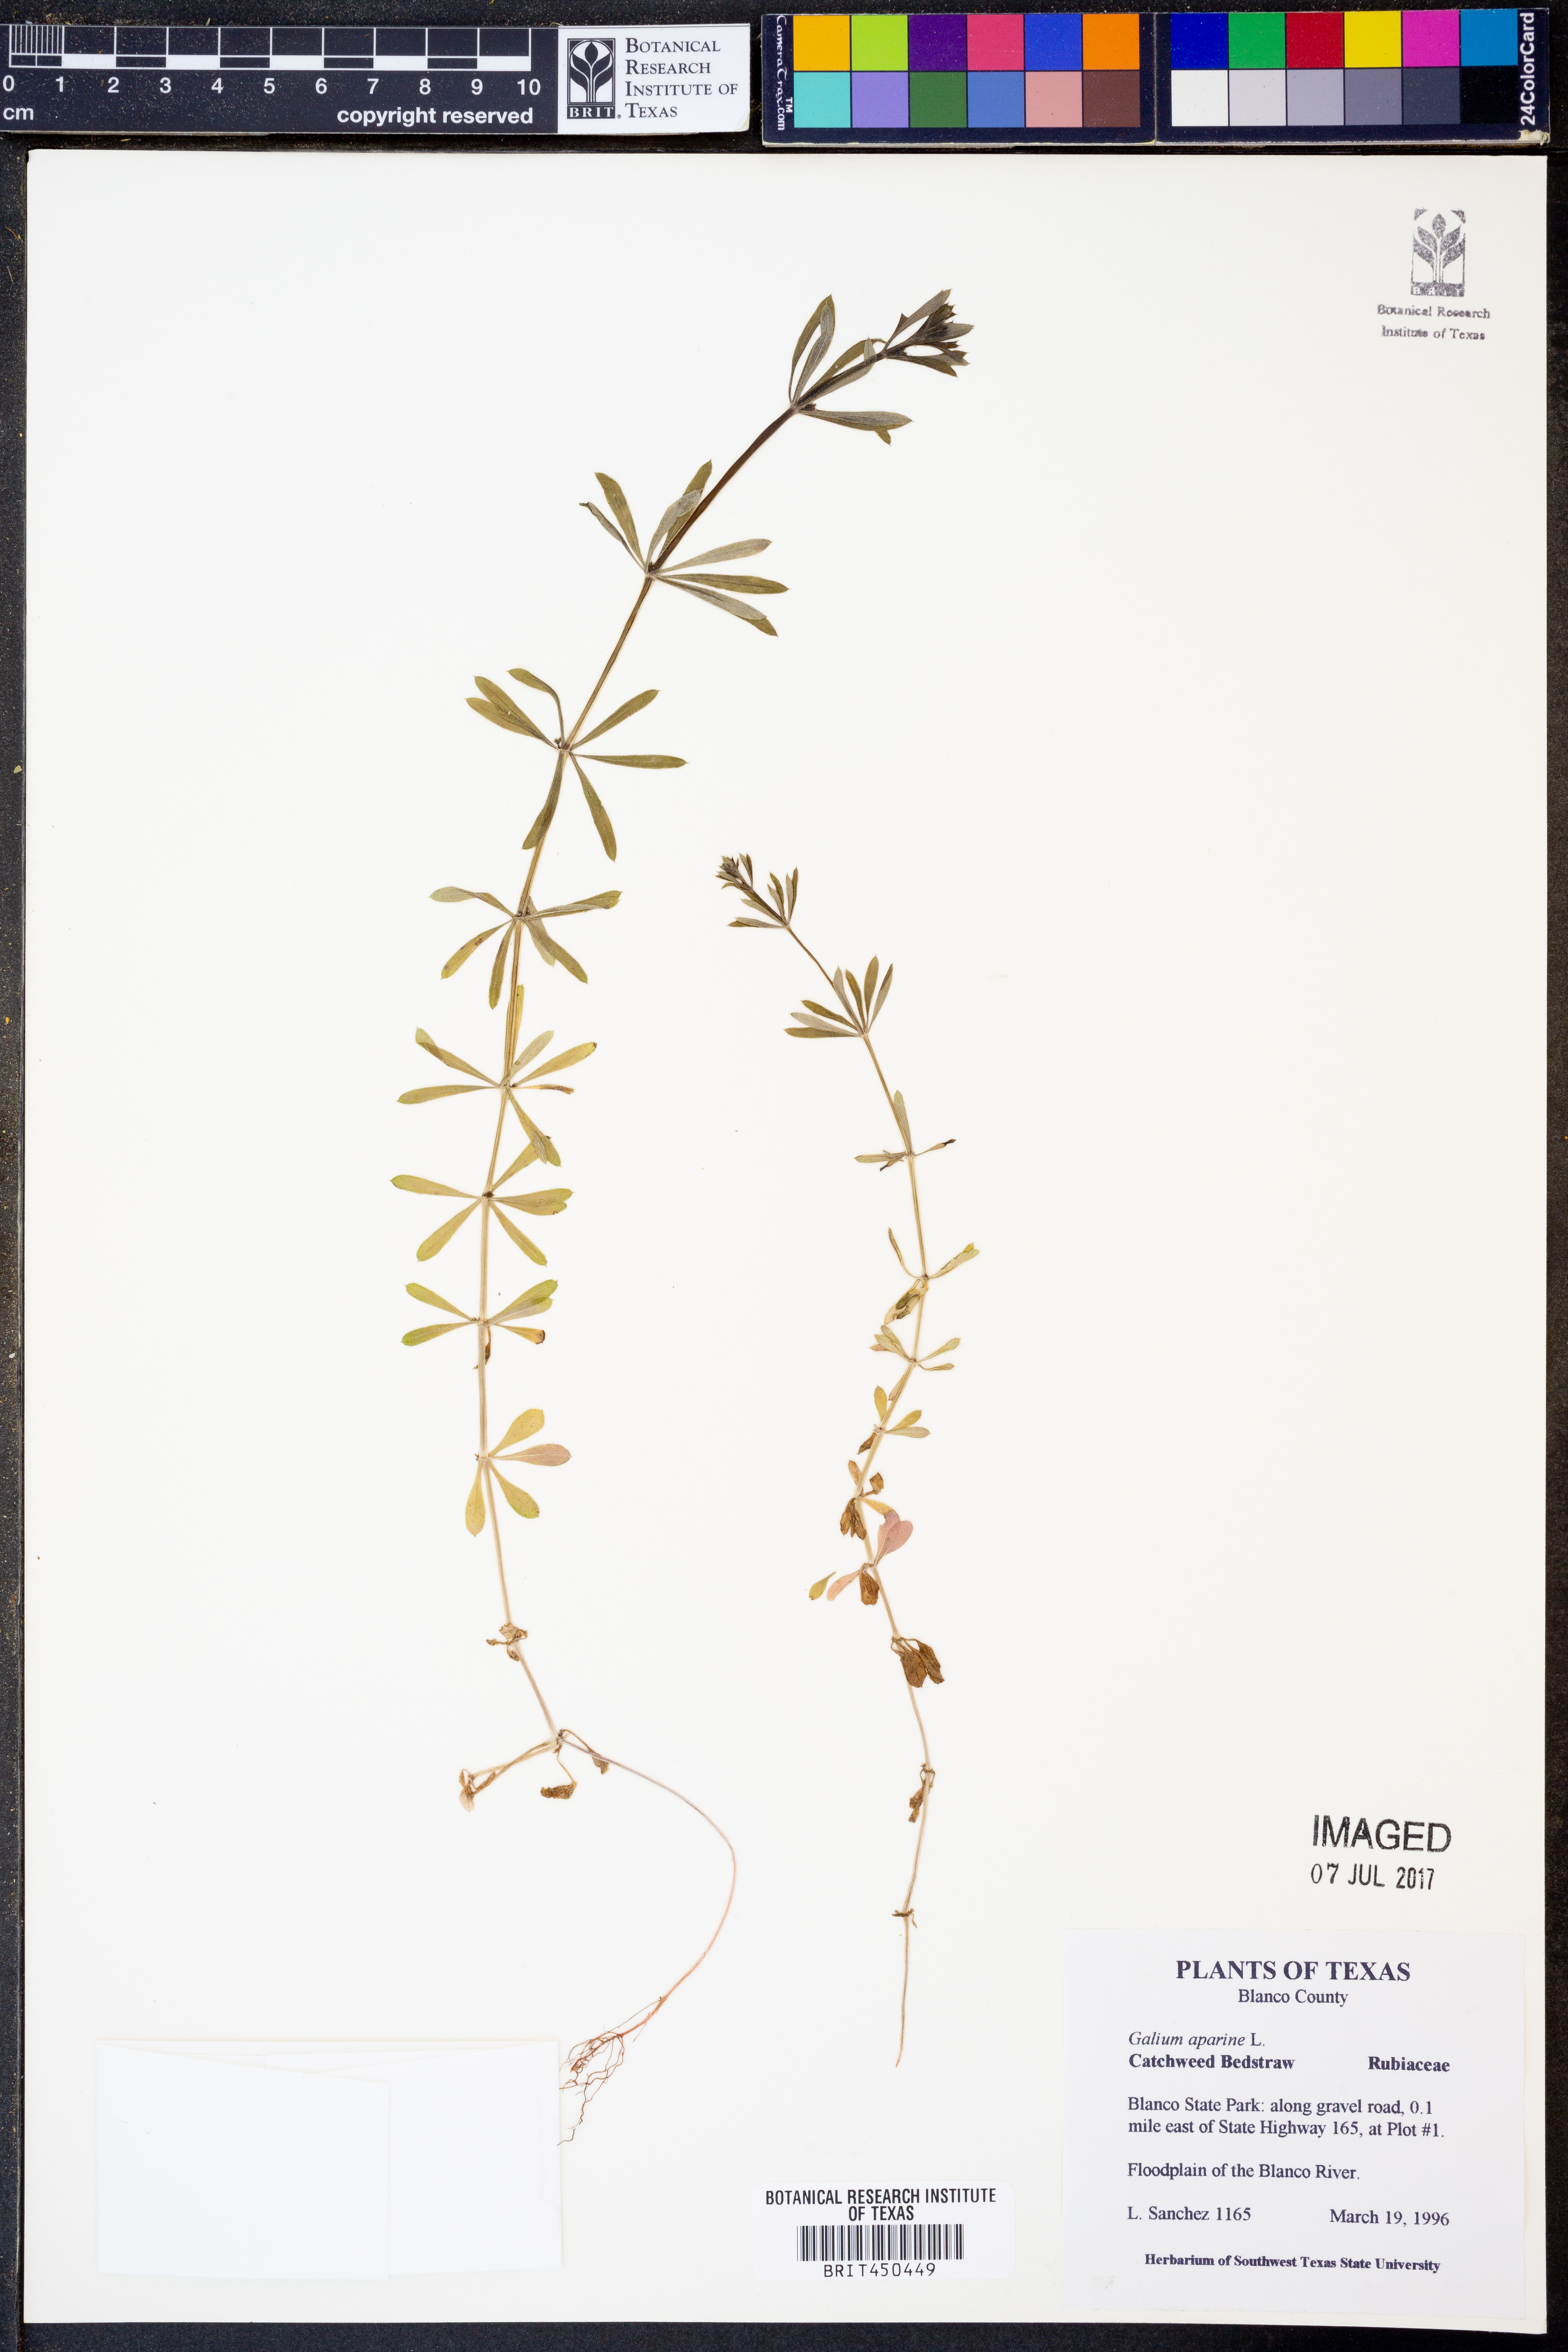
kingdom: Plantae
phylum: Tracheophyta
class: Magnoliopsida
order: Gentianales
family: Rubiaceae
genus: Galium
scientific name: Galium aparine
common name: Cleavers
